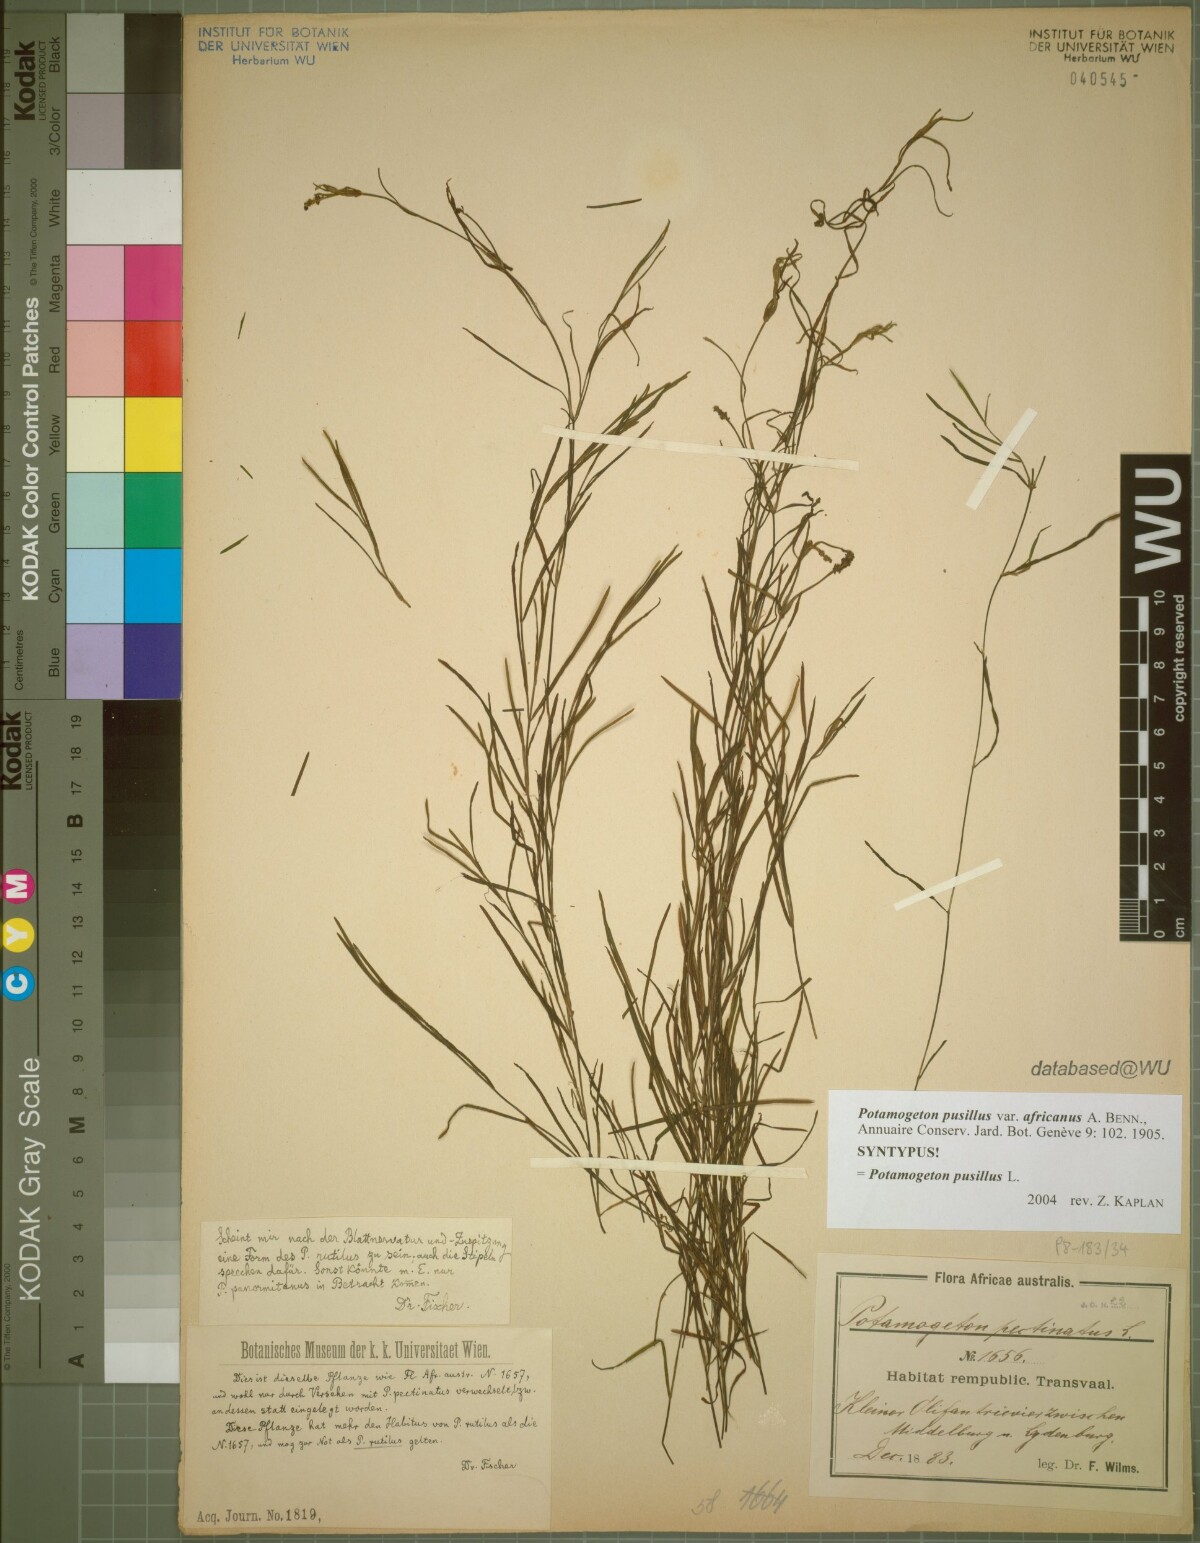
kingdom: Plantae
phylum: Tracheophyta
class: Liliopsida
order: Alismatales
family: Potamogetonaceae
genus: Potamogeton
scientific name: Potamogeton pusillus
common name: Lesser pondweed
